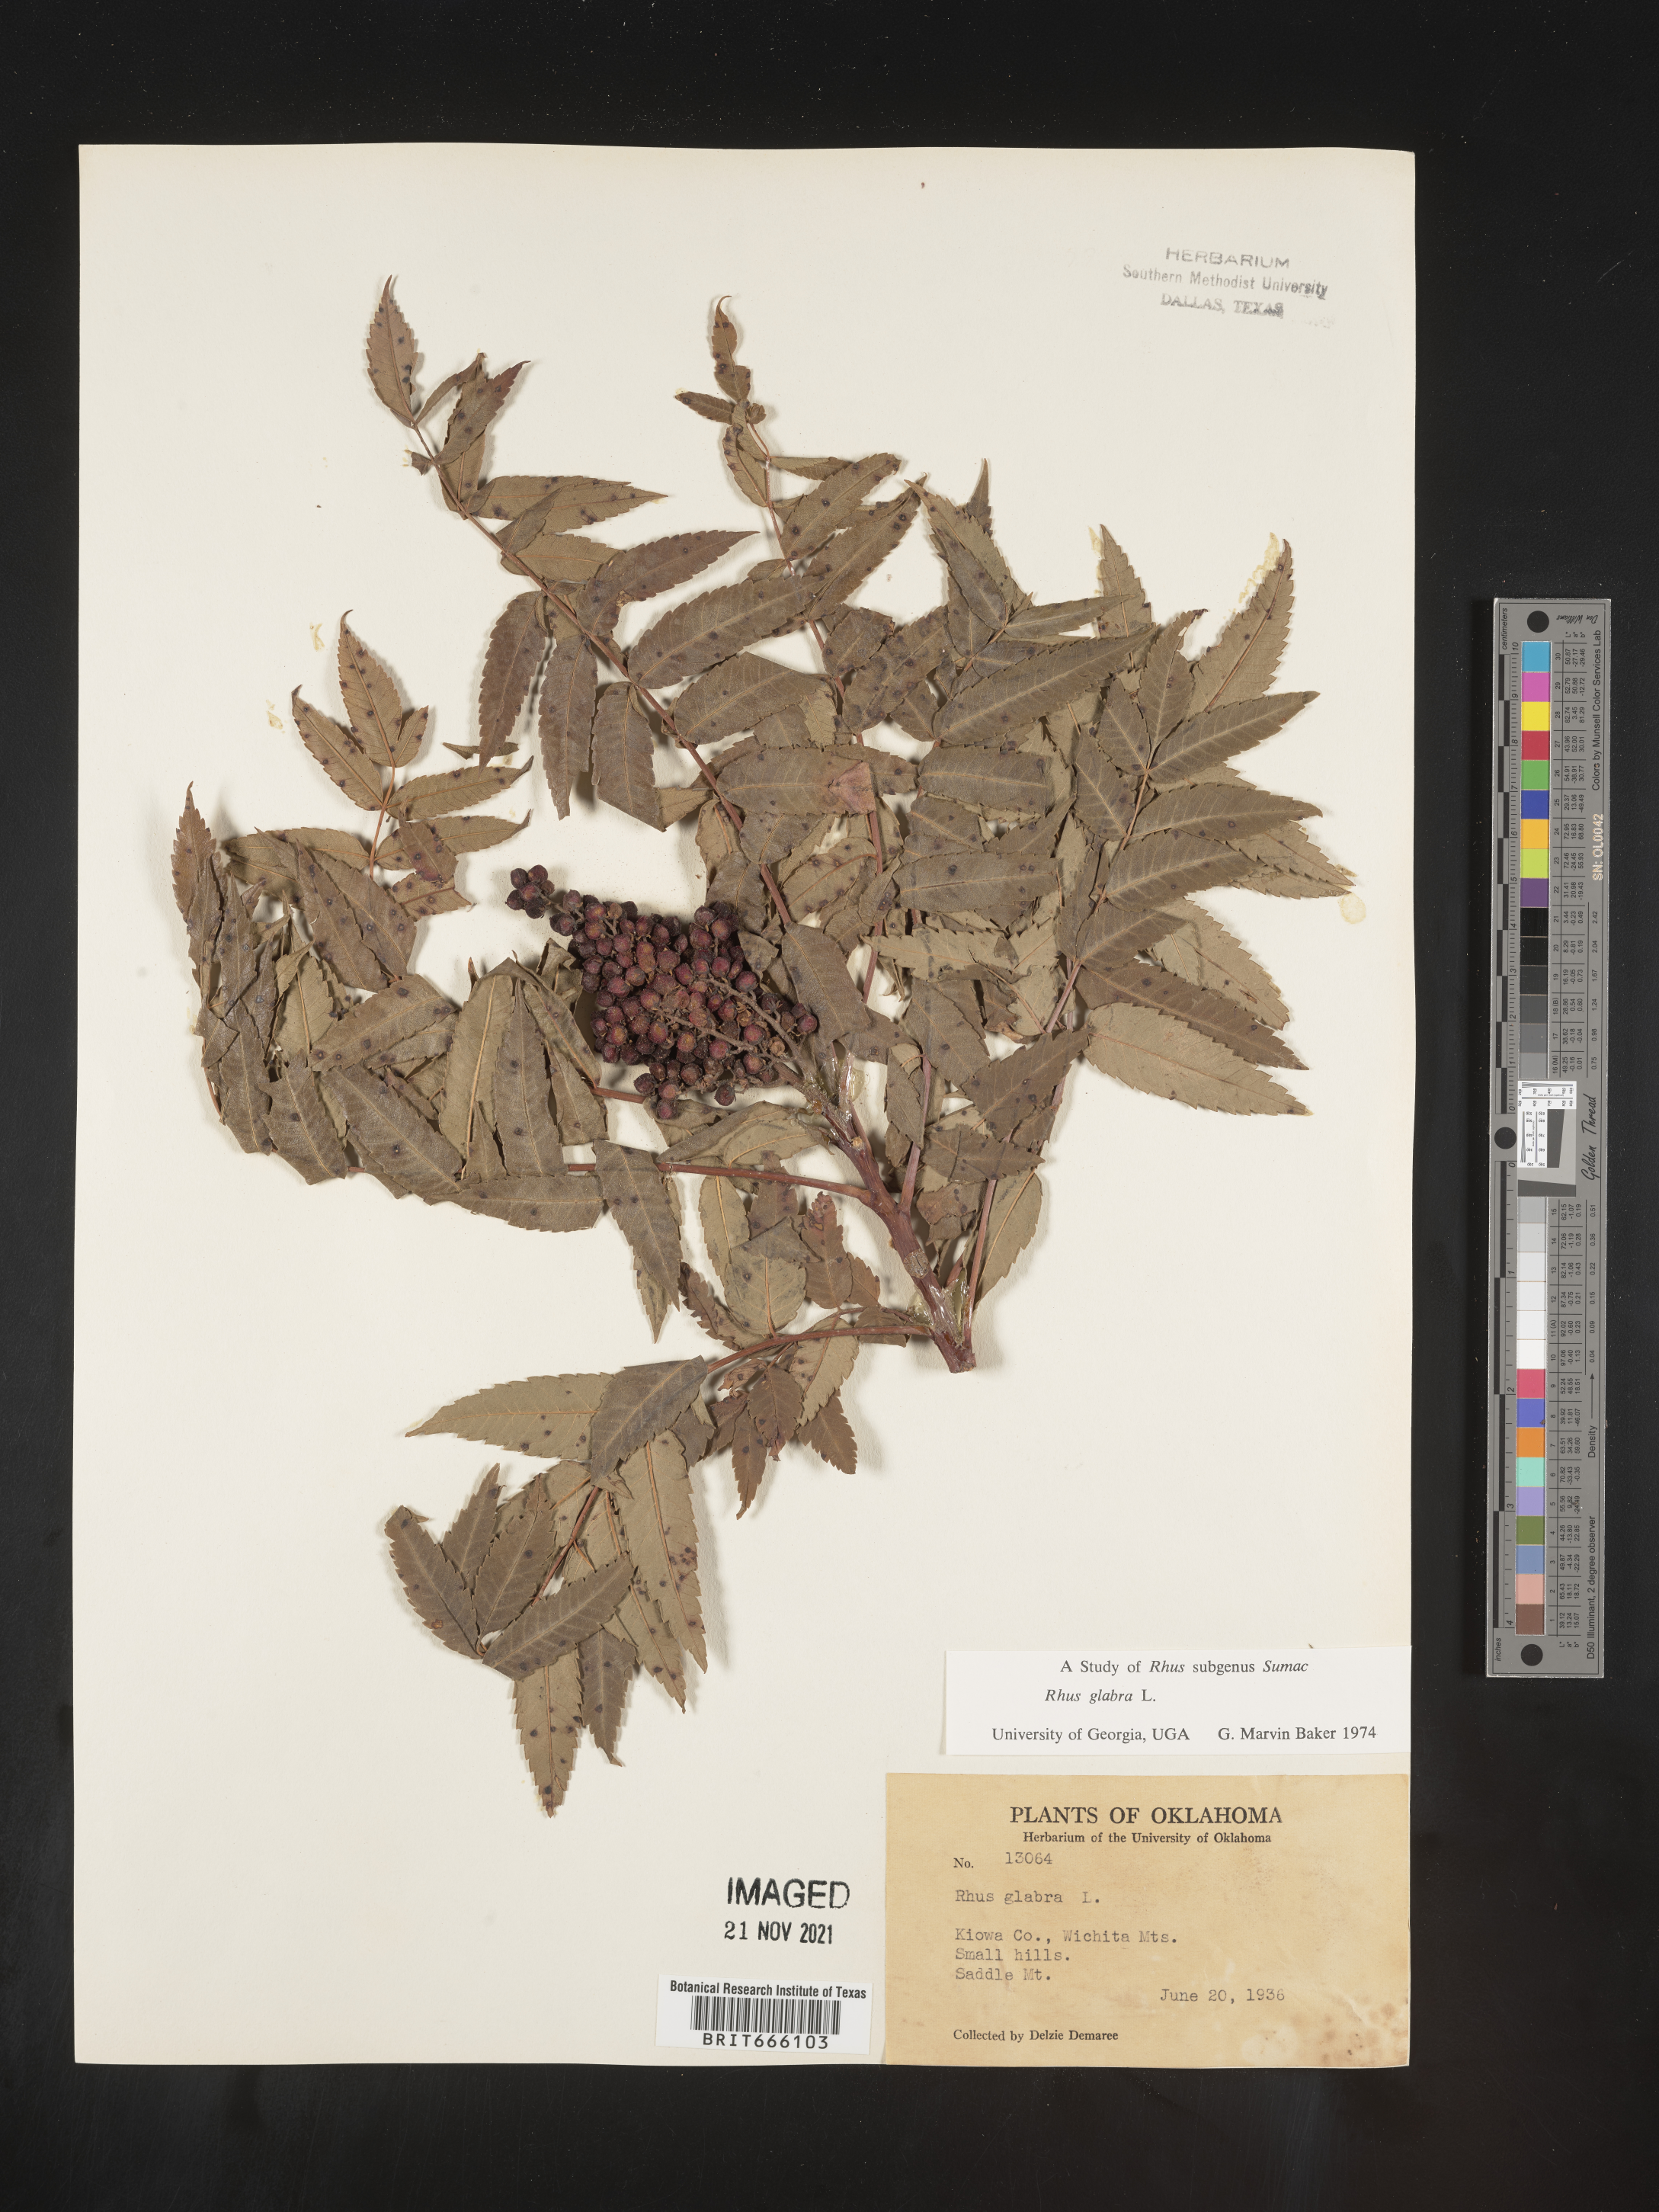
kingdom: Plantae
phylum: Tracheophyta
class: Magnoliopsida
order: Sapindales
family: Anacardiaceae
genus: Rhus
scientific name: Rhus glabra
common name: Scarlet sumac
